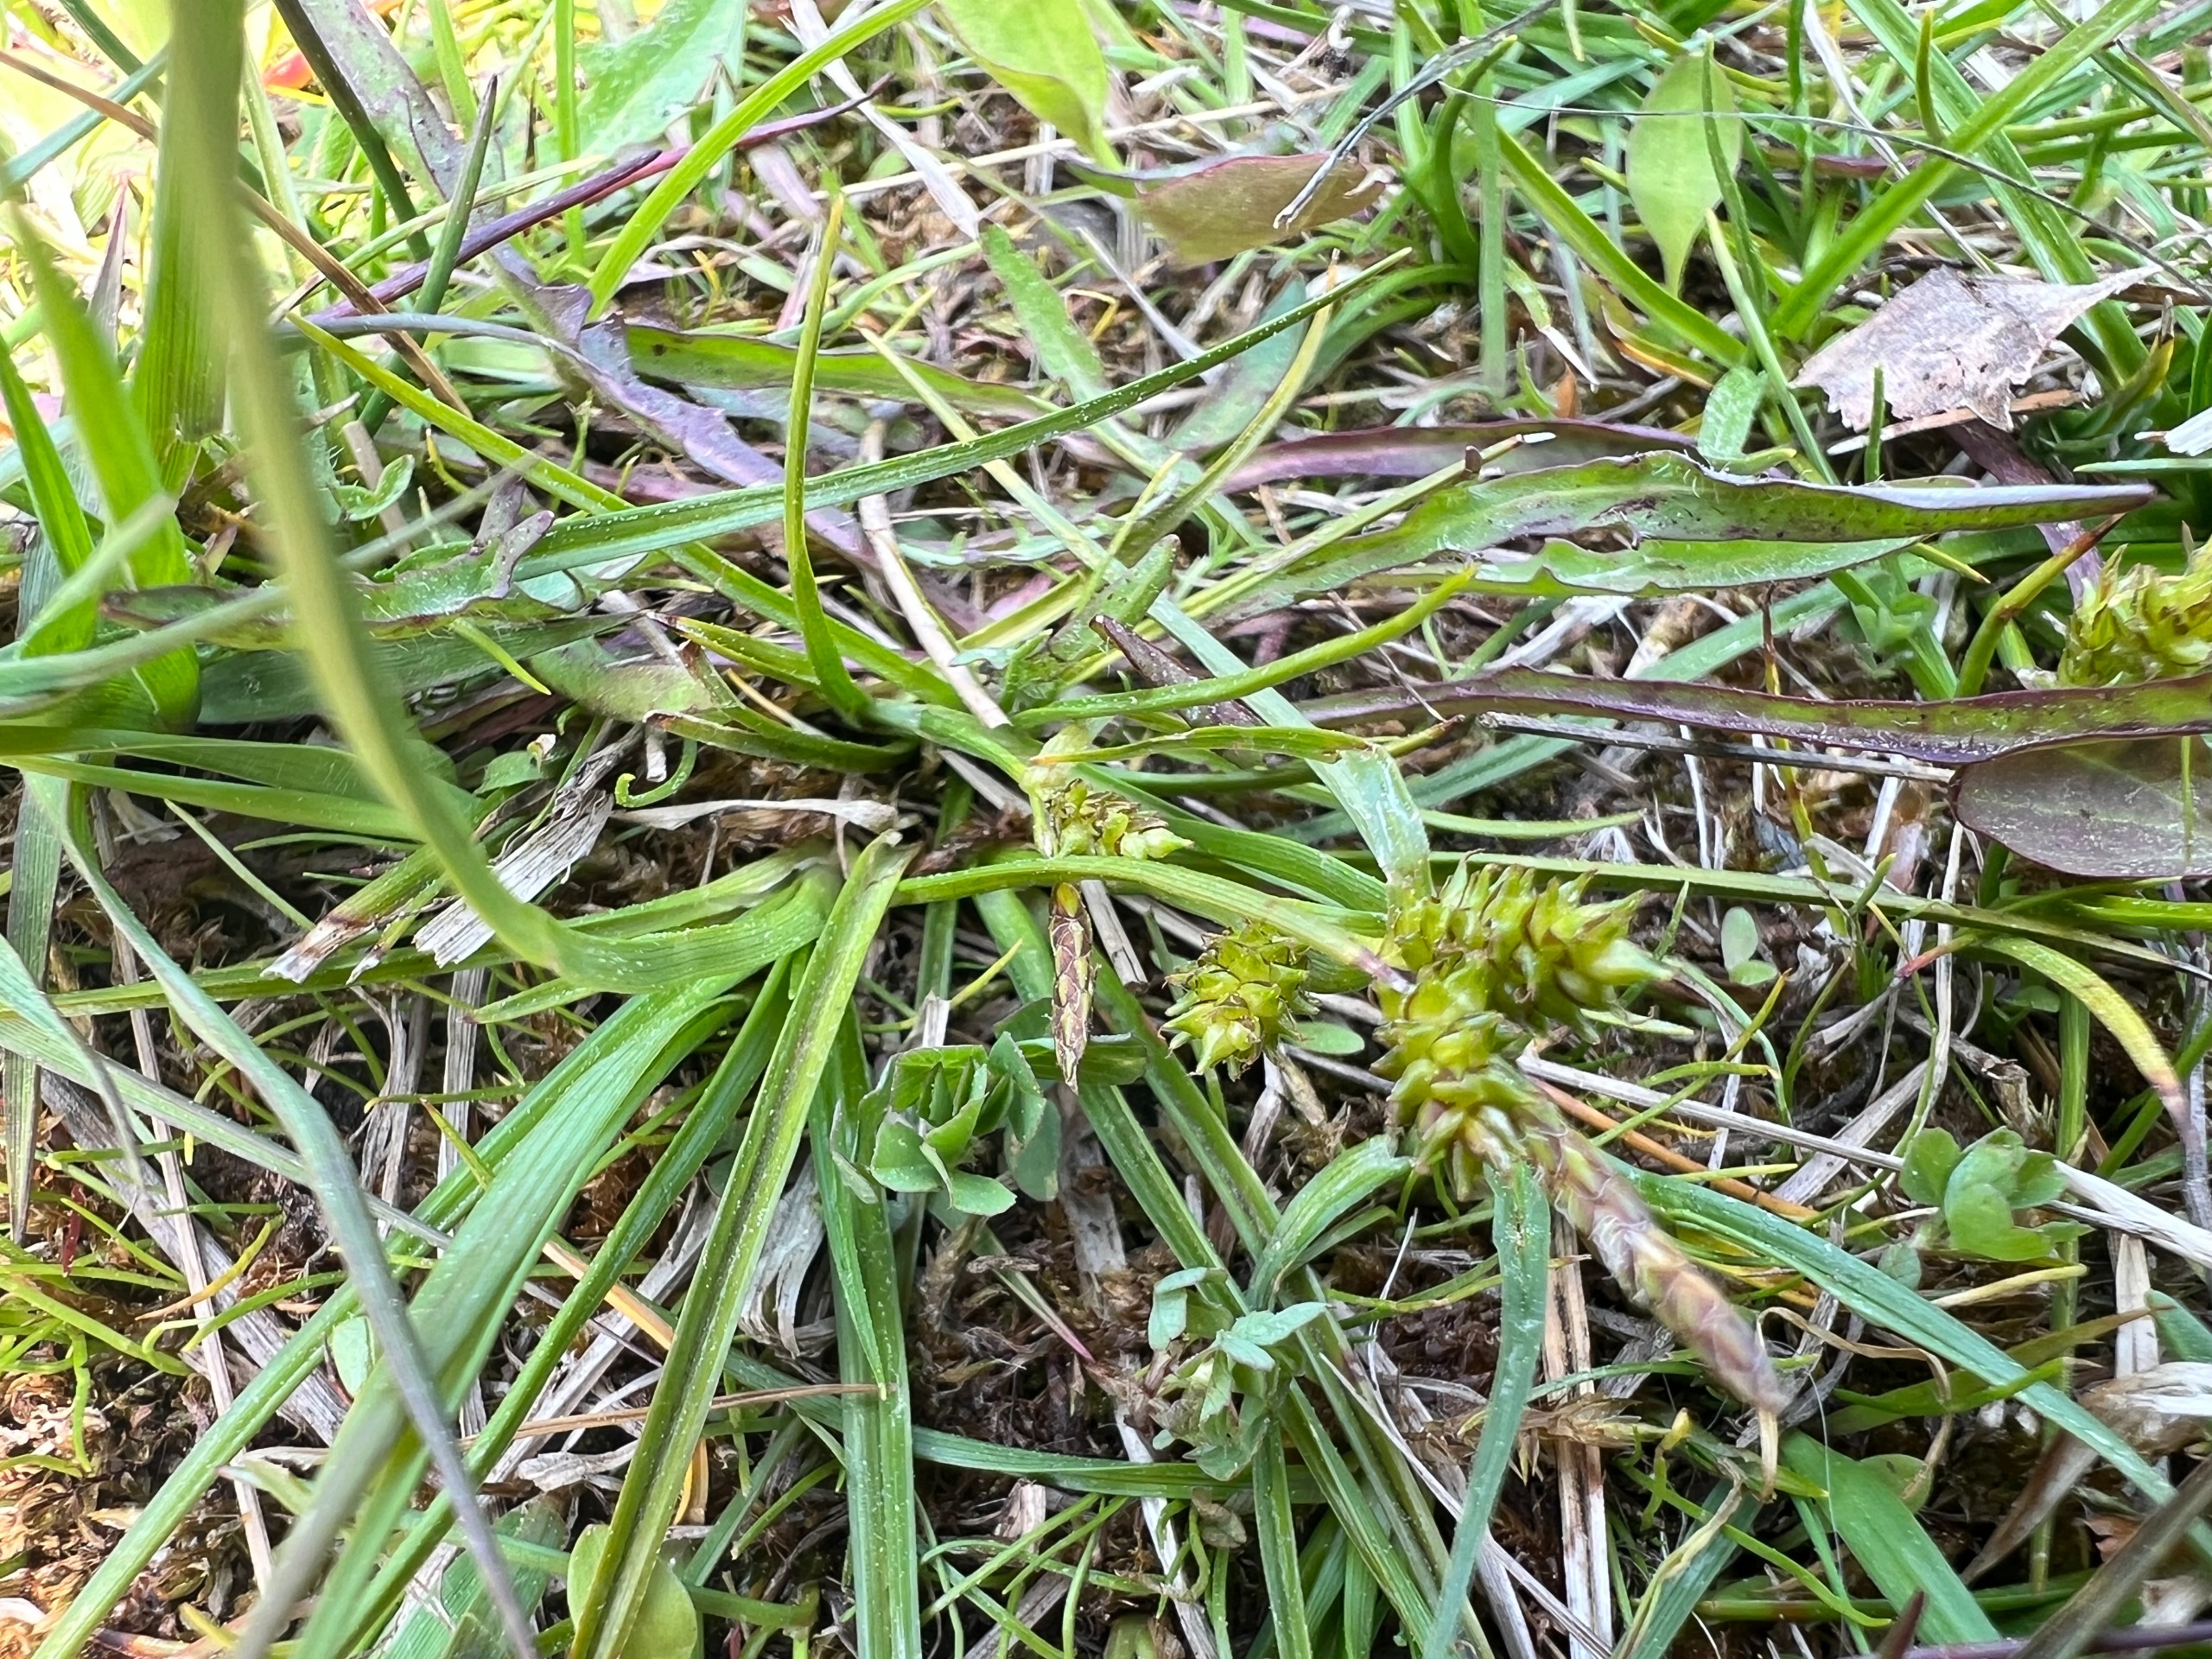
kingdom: Plantae
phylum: Tracheophyta
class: Liliopsida
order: Poales
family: Cyperaceae
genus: Carex
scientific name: Carex oederi
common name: Dværg-star
